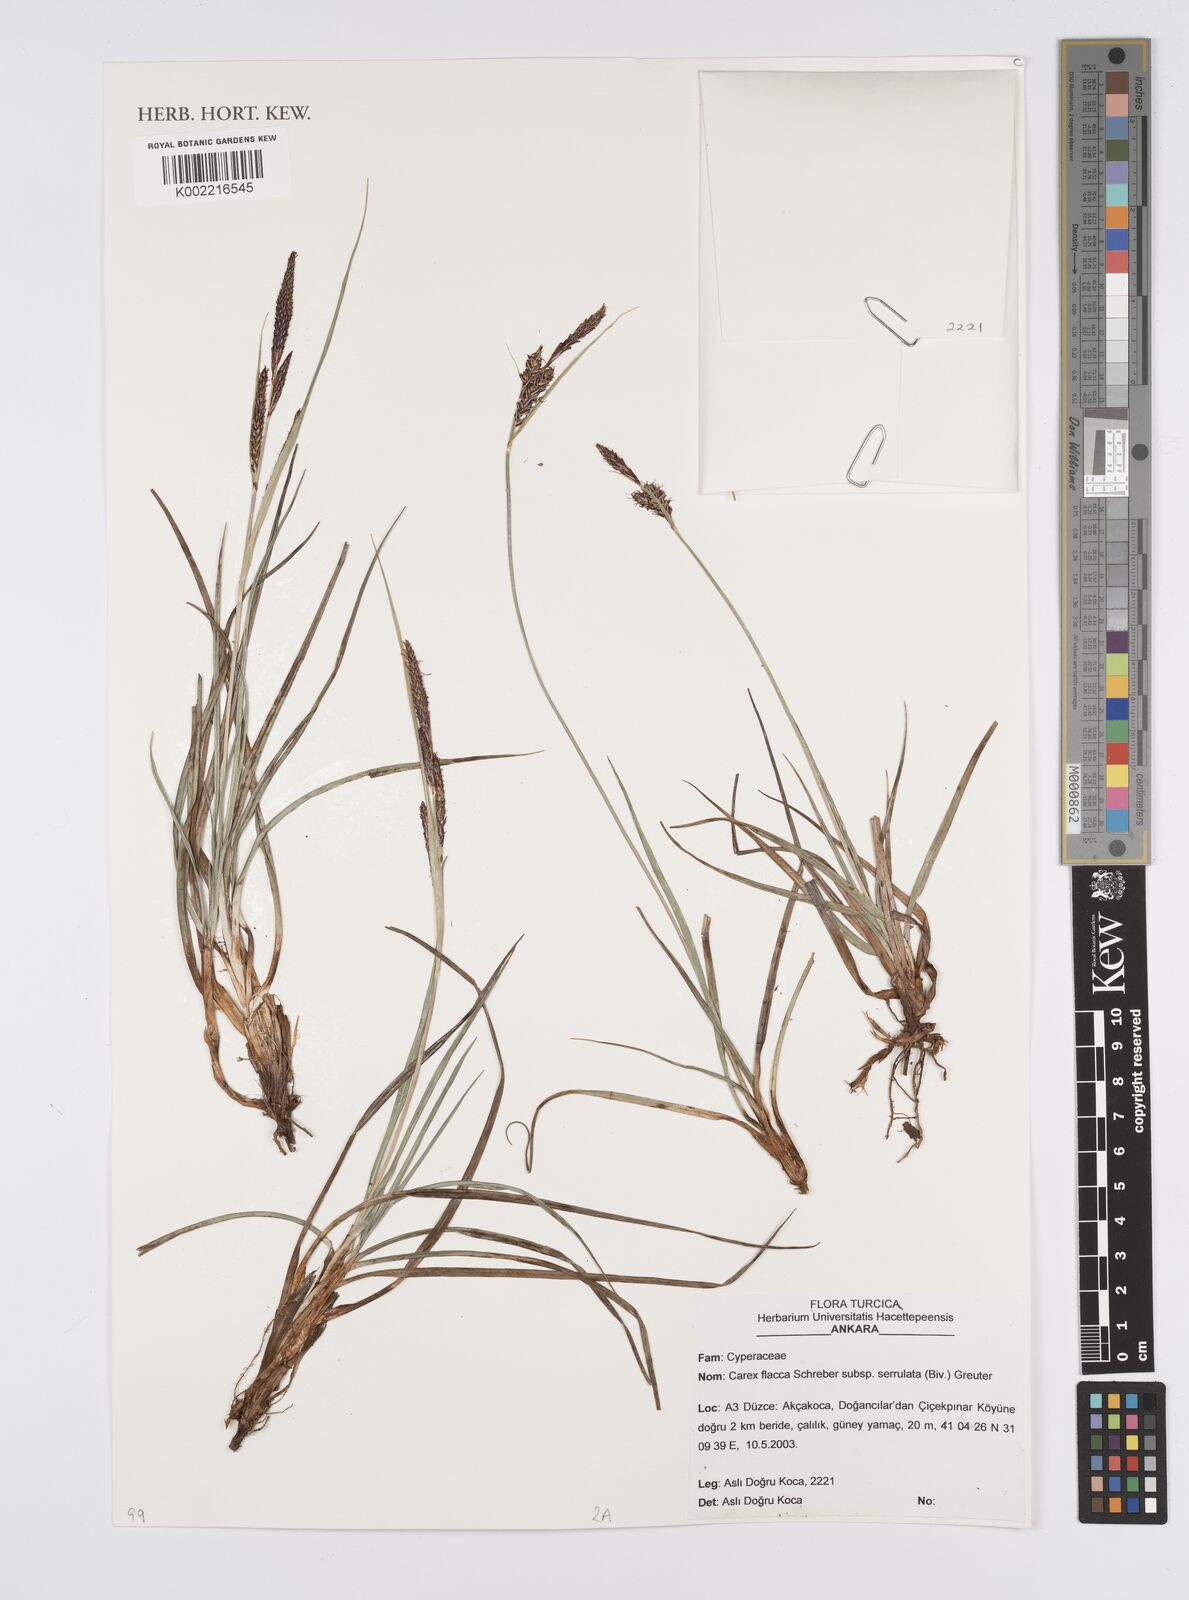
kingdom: Plantae
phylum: Tracheophyta
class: Liliopsida
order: Poales
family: Cyperaceae
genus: Carex
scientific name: Carex flacca
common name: Glaucous sedge
